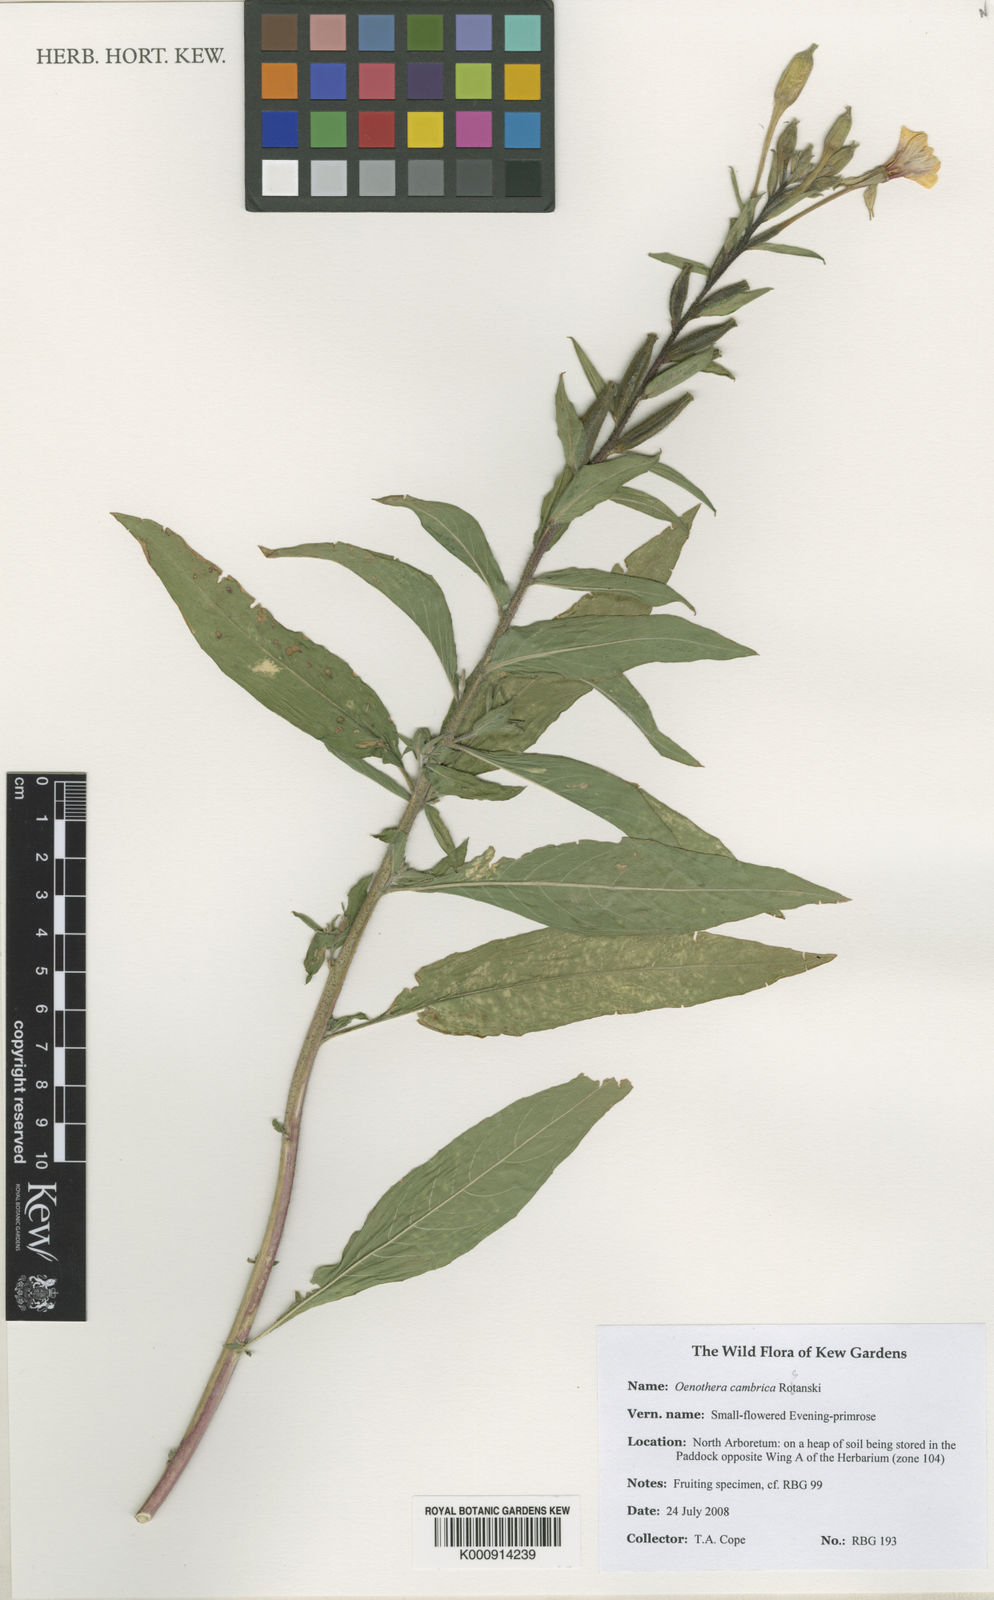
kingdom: Plantae
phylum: Tracheophyta
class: Magnoliopsida
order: Myrtales
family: Onagraceae
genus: Oenothera
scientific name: Oenothera cambrica
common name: Small-flowered evening-primrose
